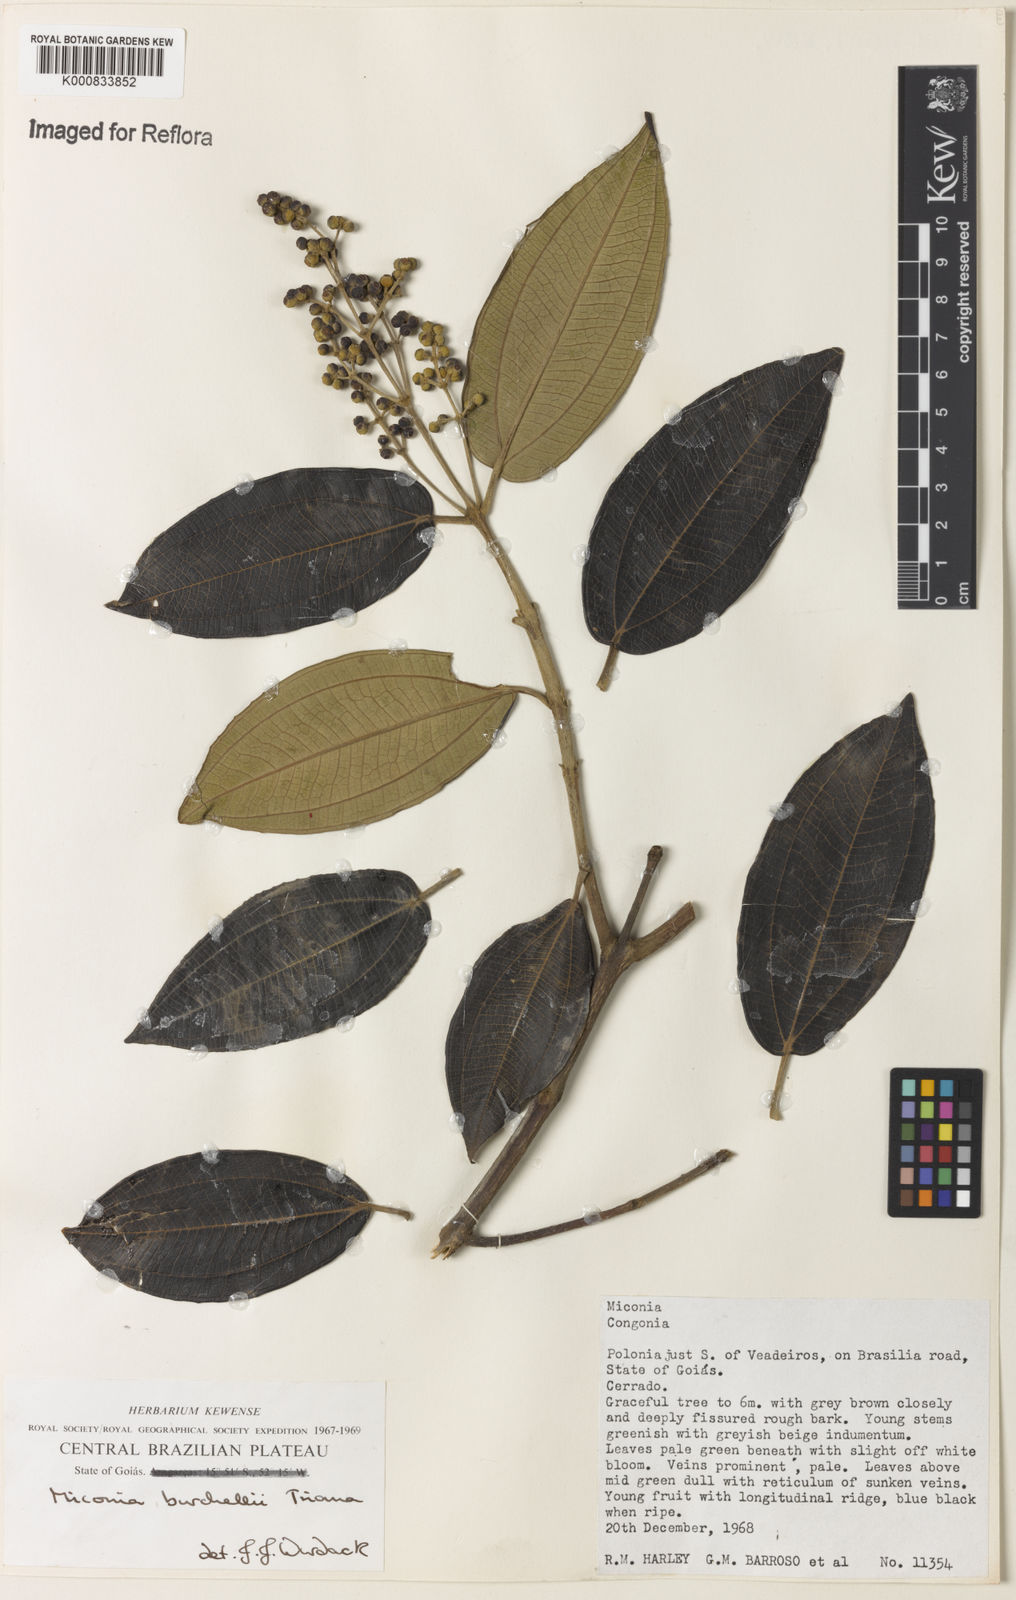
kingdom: Plantae
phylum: Tracheophyta
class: Magnoliopsida
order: Myrtales
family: Melastomataceae
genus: Miconia
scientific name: Miconia burchellii
